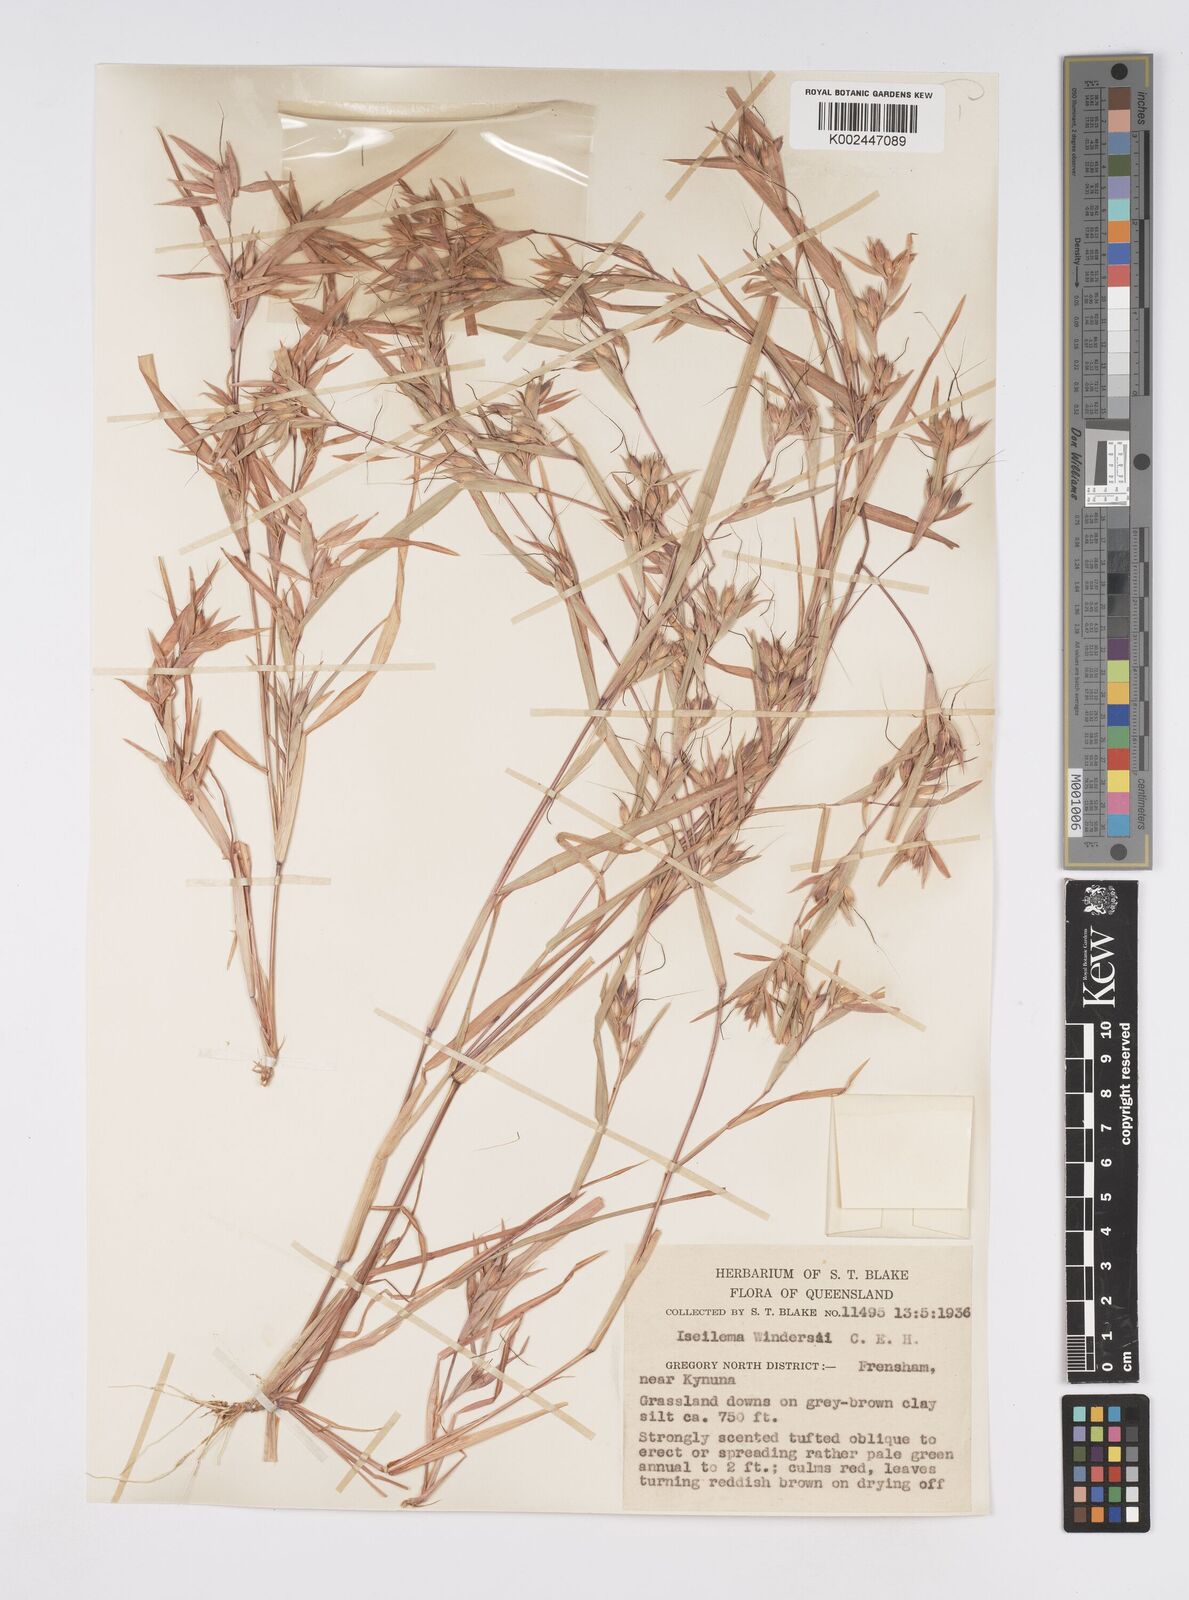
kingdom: Plantae
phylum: Tracheophyta
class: Liliopsida
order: Poales
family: Poaceae
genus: Iseilema
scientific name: Iseilema windersii
